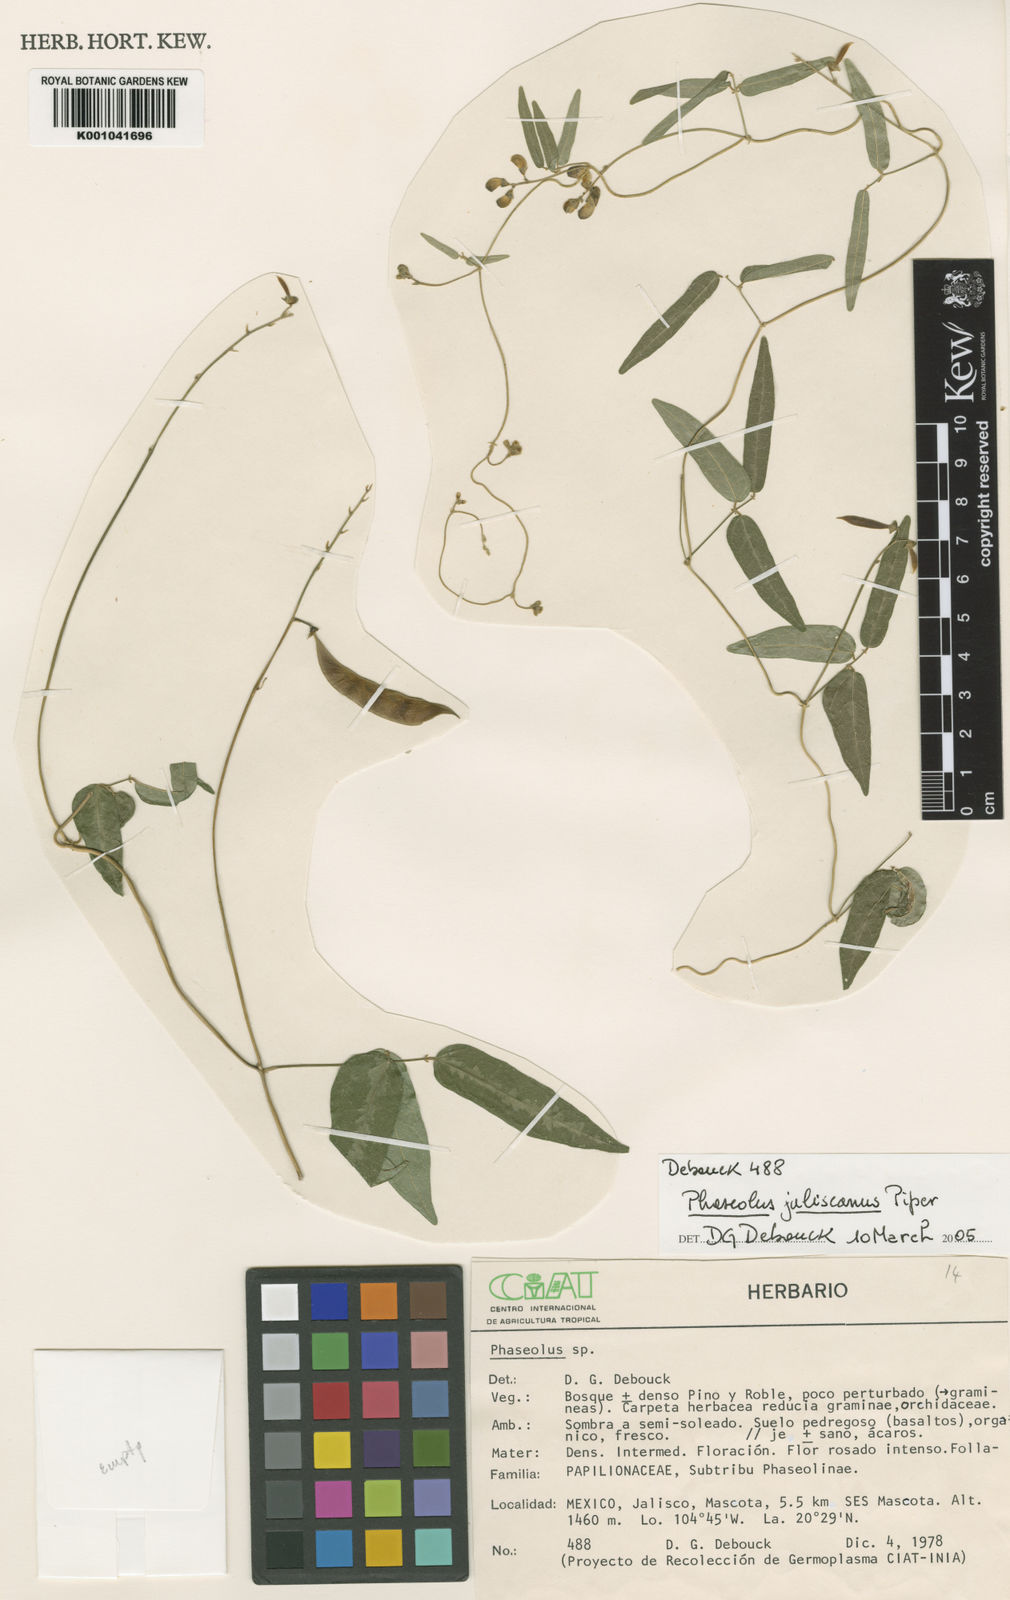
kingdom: Plantae
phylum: Tracheophyta
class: Magnoliopsida
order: Fabales
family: Fabaceae
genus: Phaseolus
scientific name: Phaseolus jaliscanus
